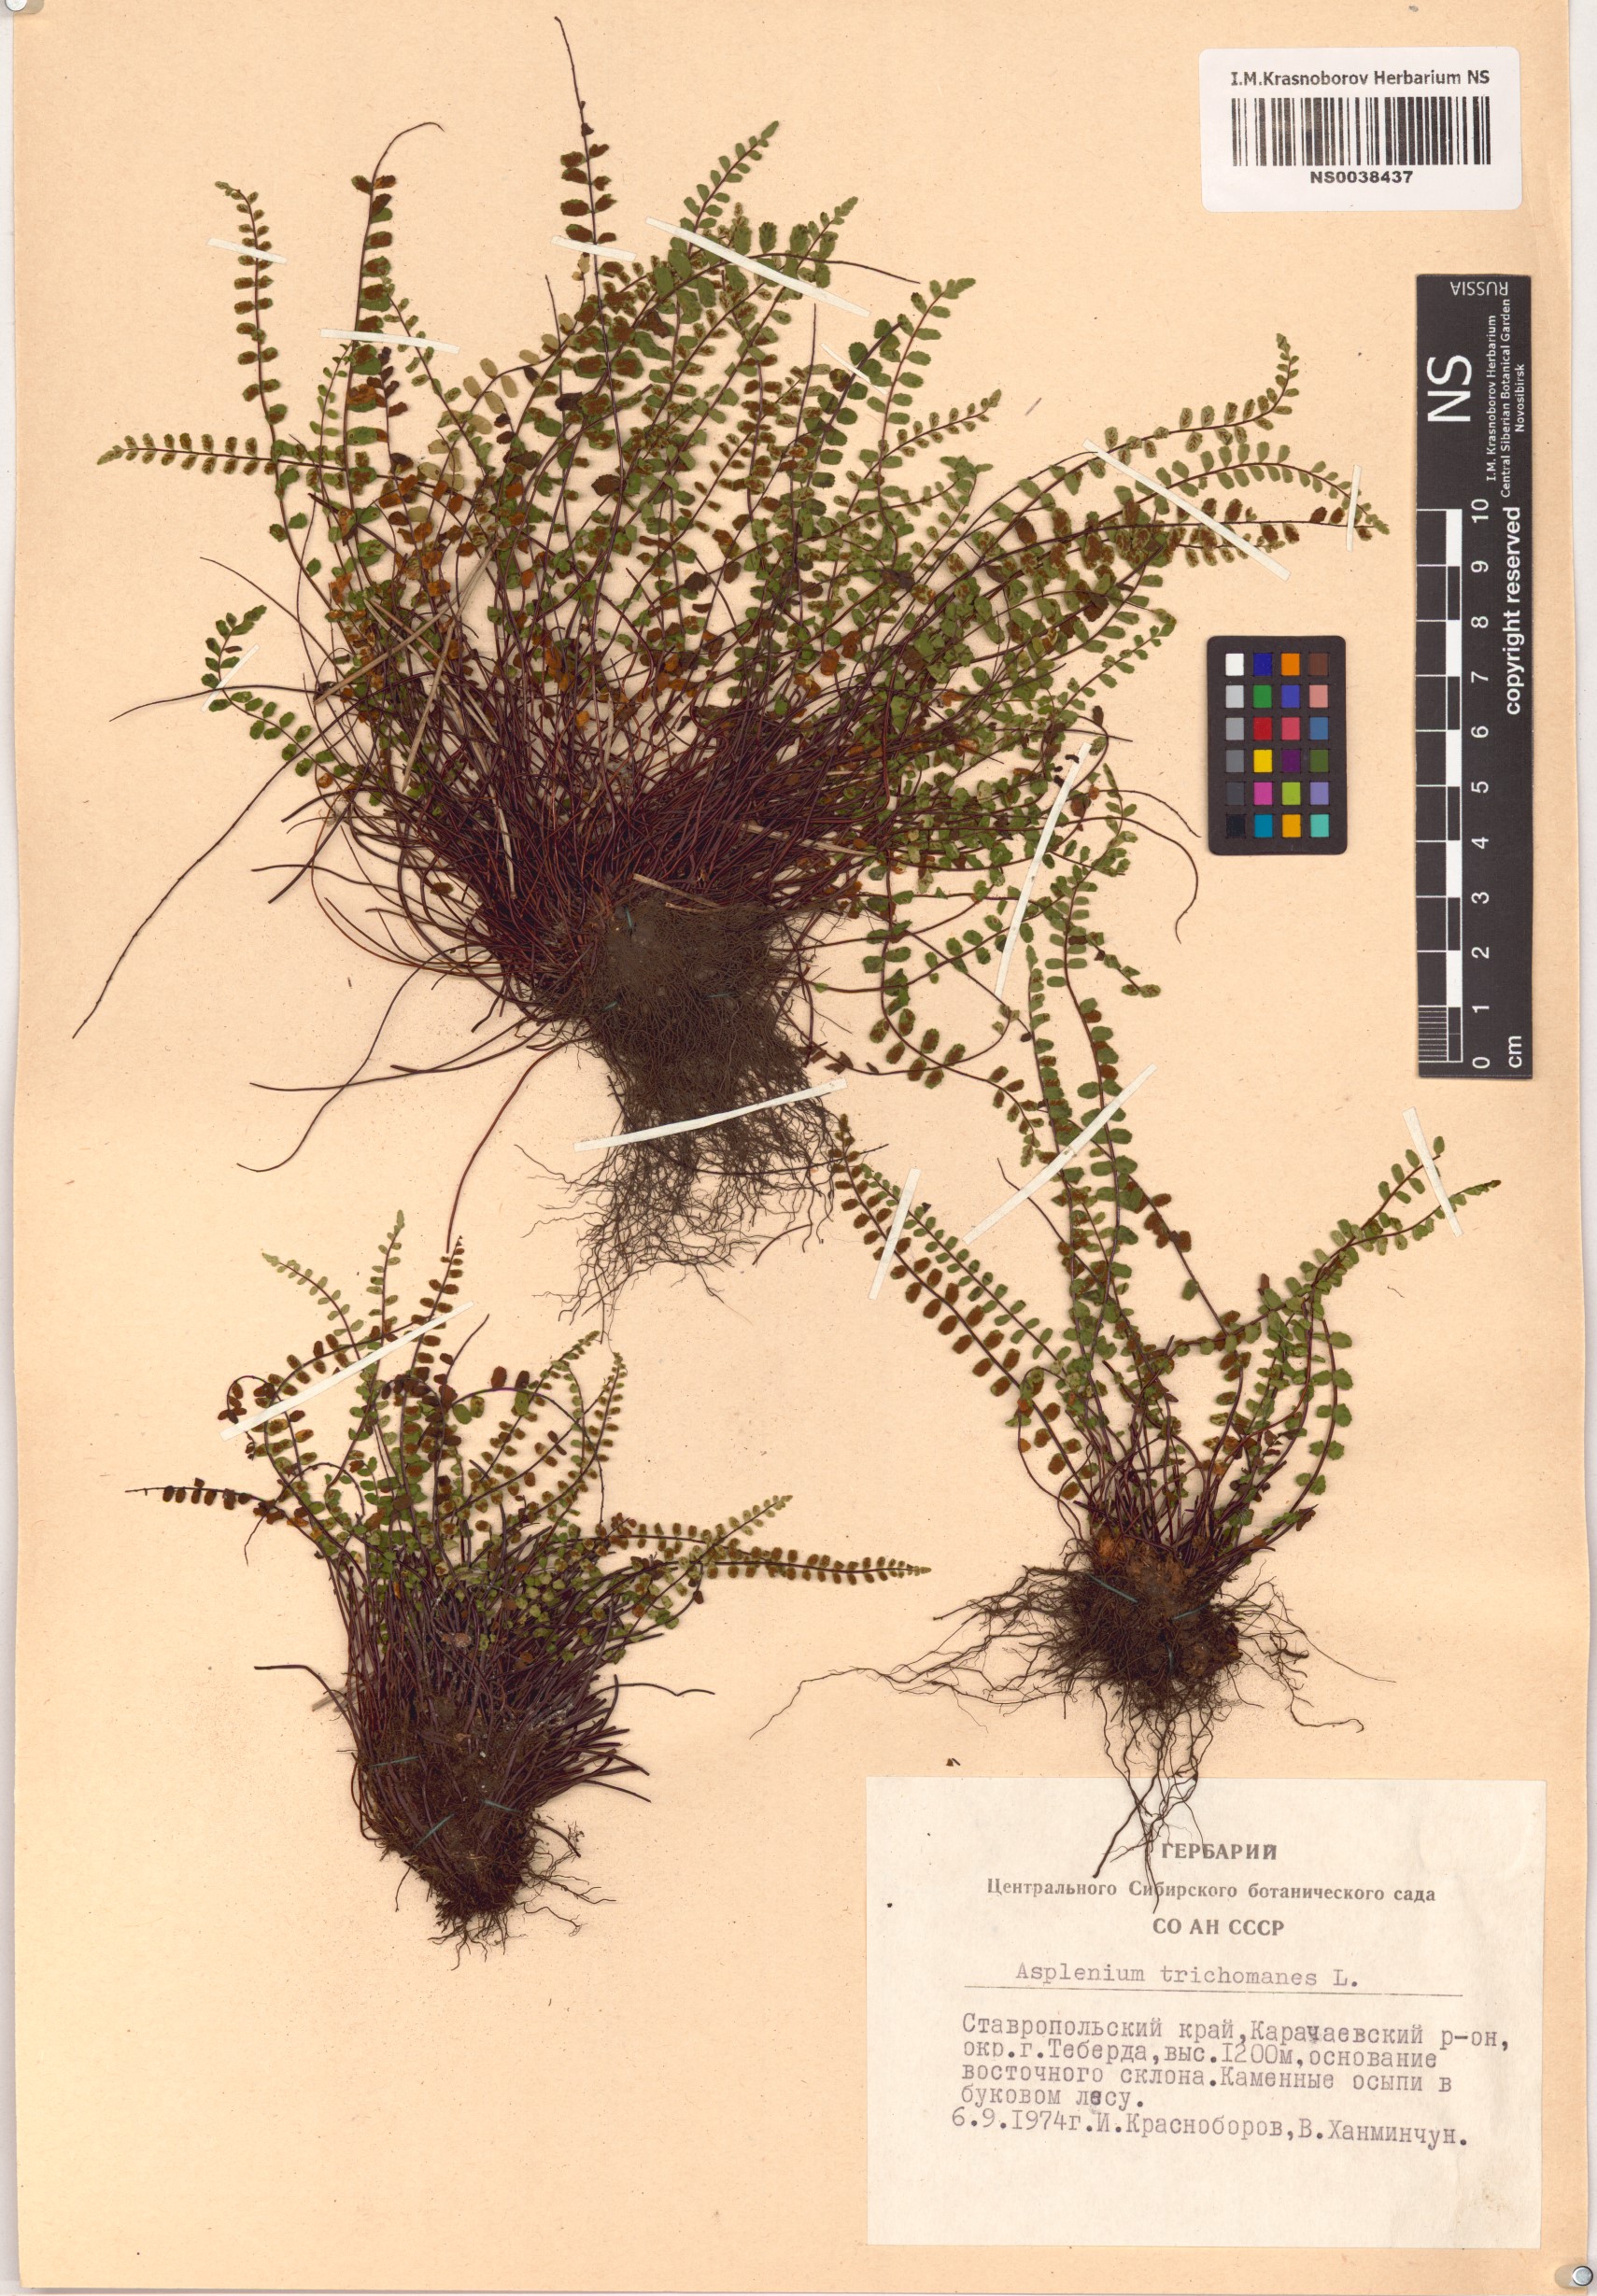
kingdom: Plantae
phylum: Tracheophyta
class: Polypodiopsida
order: Polypodiales
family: Aspleniaceae
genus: Asplenium
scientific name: Asplenium trichomanes
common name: Maidenhair spleenwort
